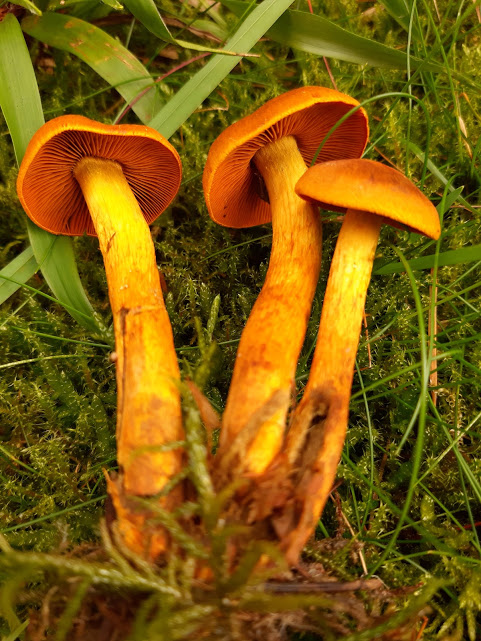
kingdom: Fungi
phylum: Basidiomycota
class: Agaricomycetes
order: Agaricales
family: Cortinariaceae
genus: Cortinarius
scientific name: Cortinarius
